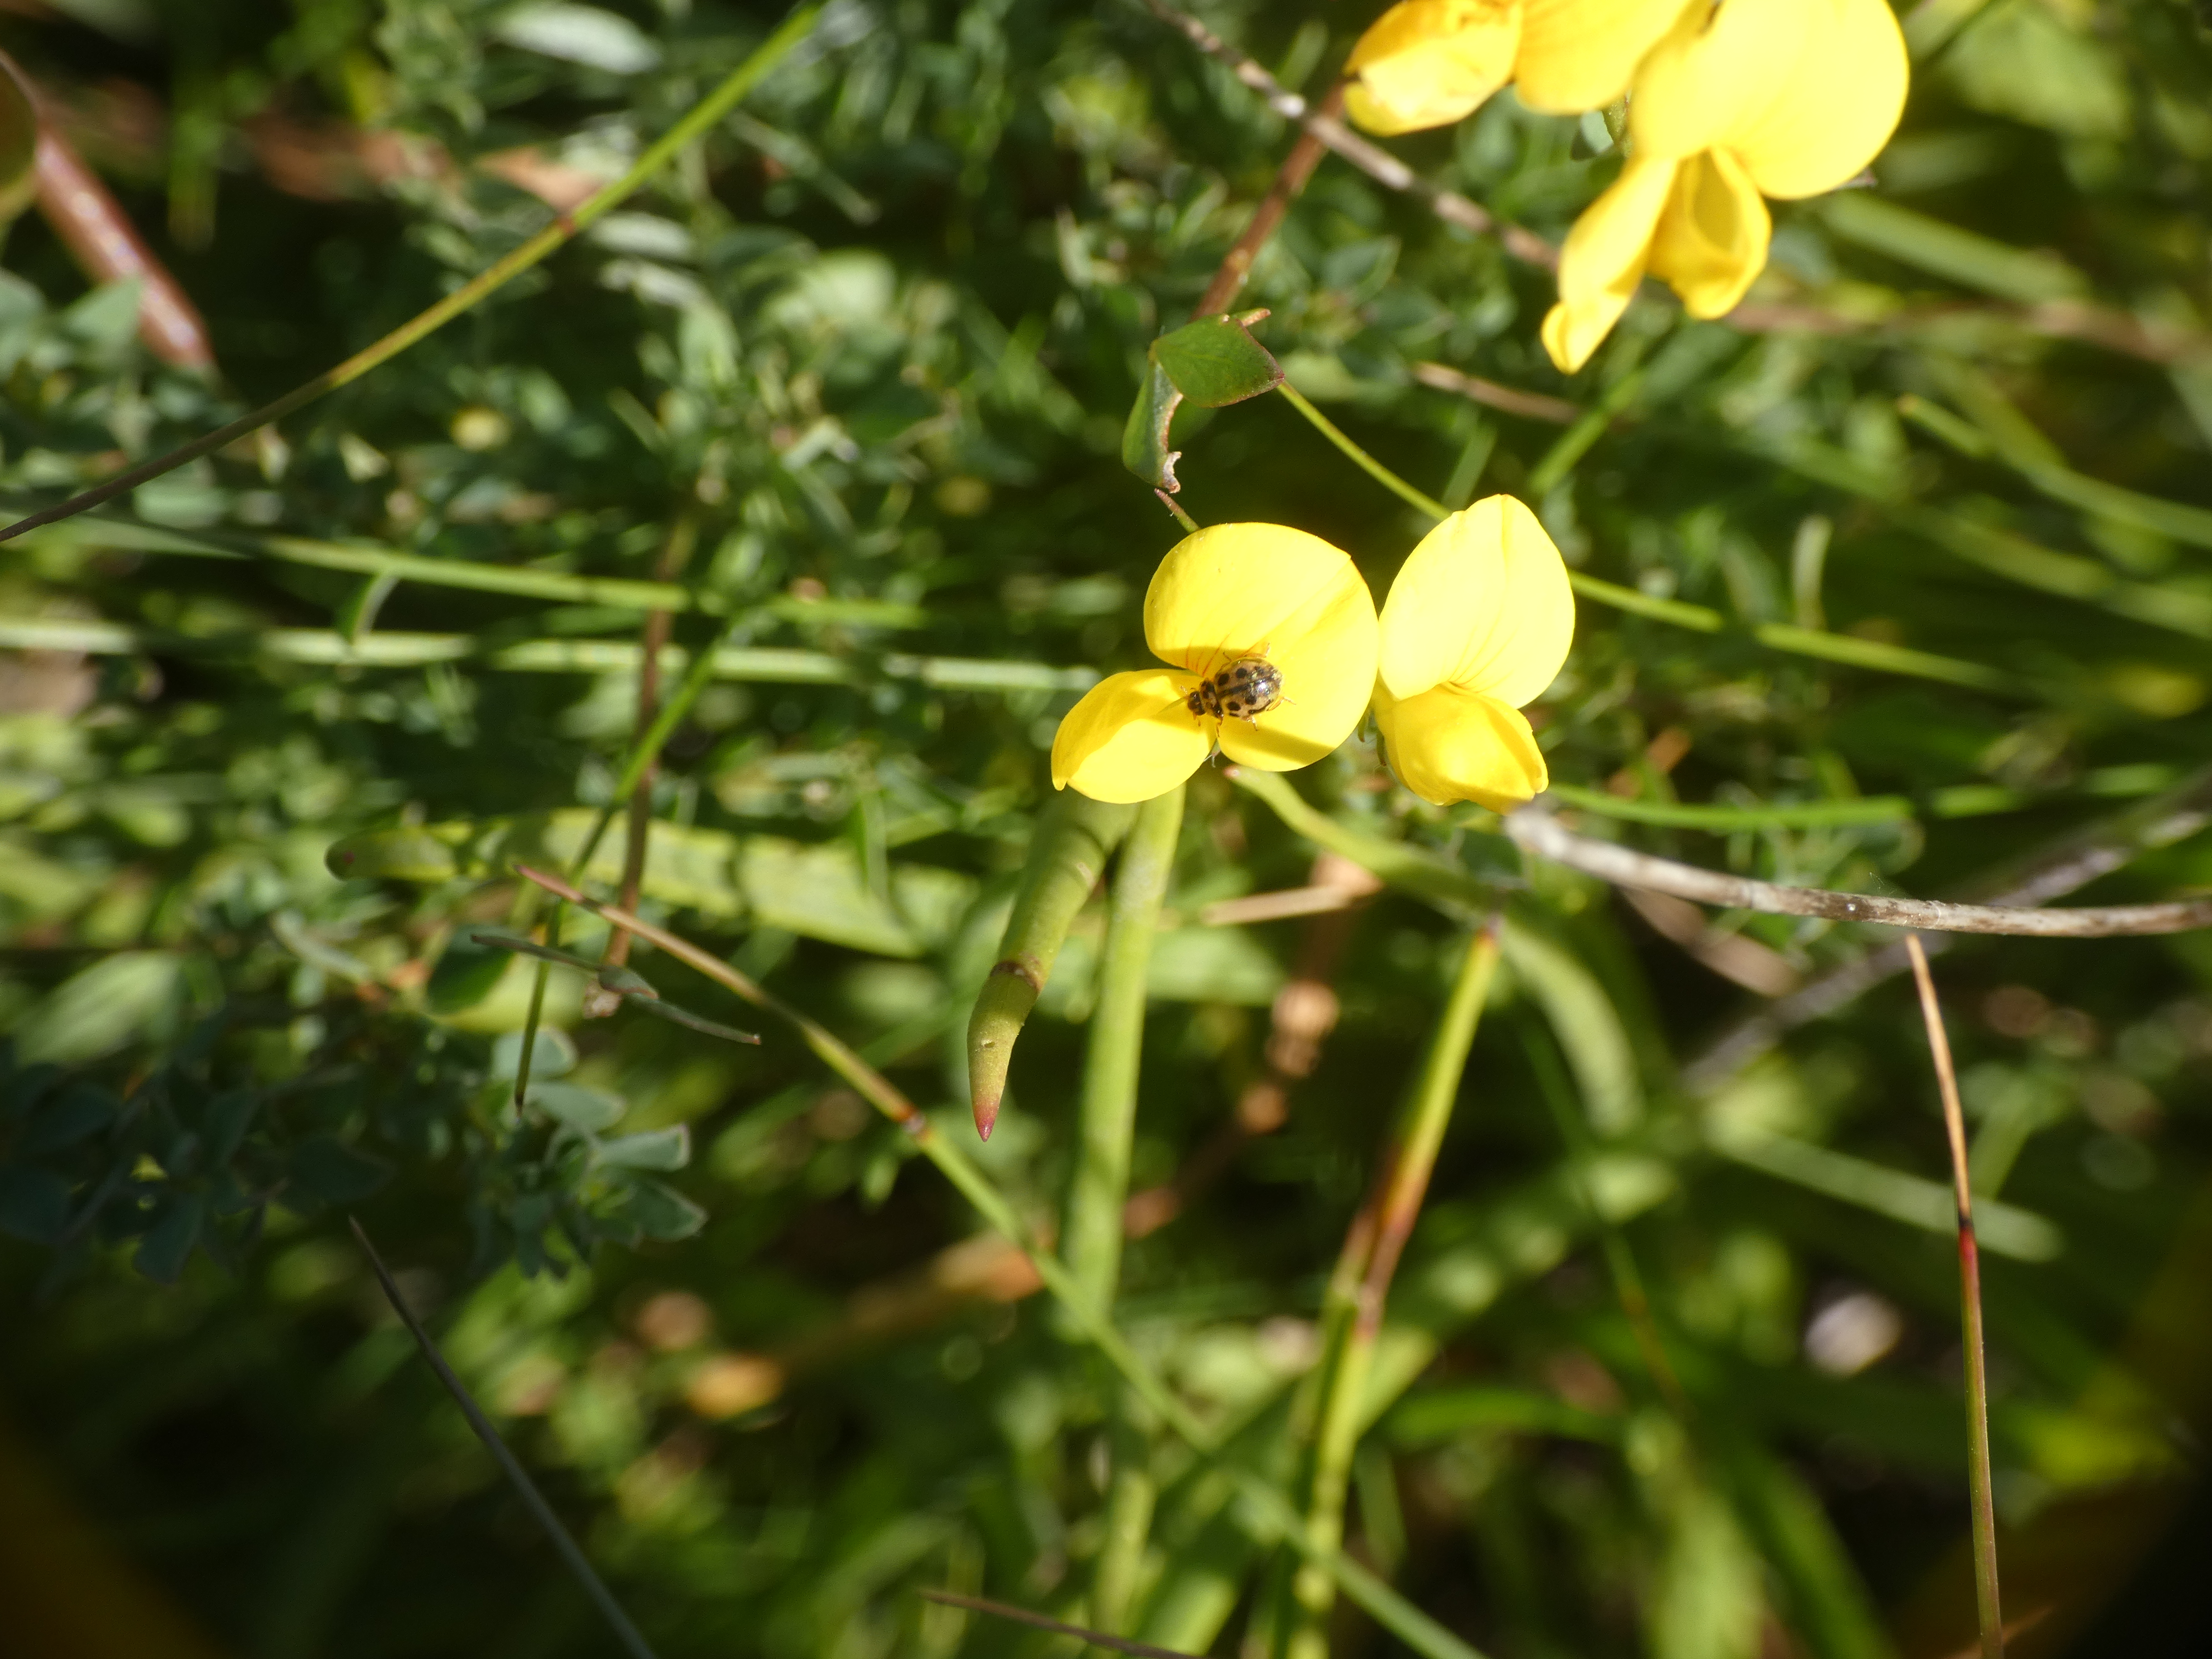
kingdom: Animalia
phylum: Arthropoda
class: Insecta
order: Coleoptera
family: Coccinellidae
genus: Tytthaspis
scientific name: Tytthaspis sedecimpunctata
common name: Sekstenprikket mariehøne
